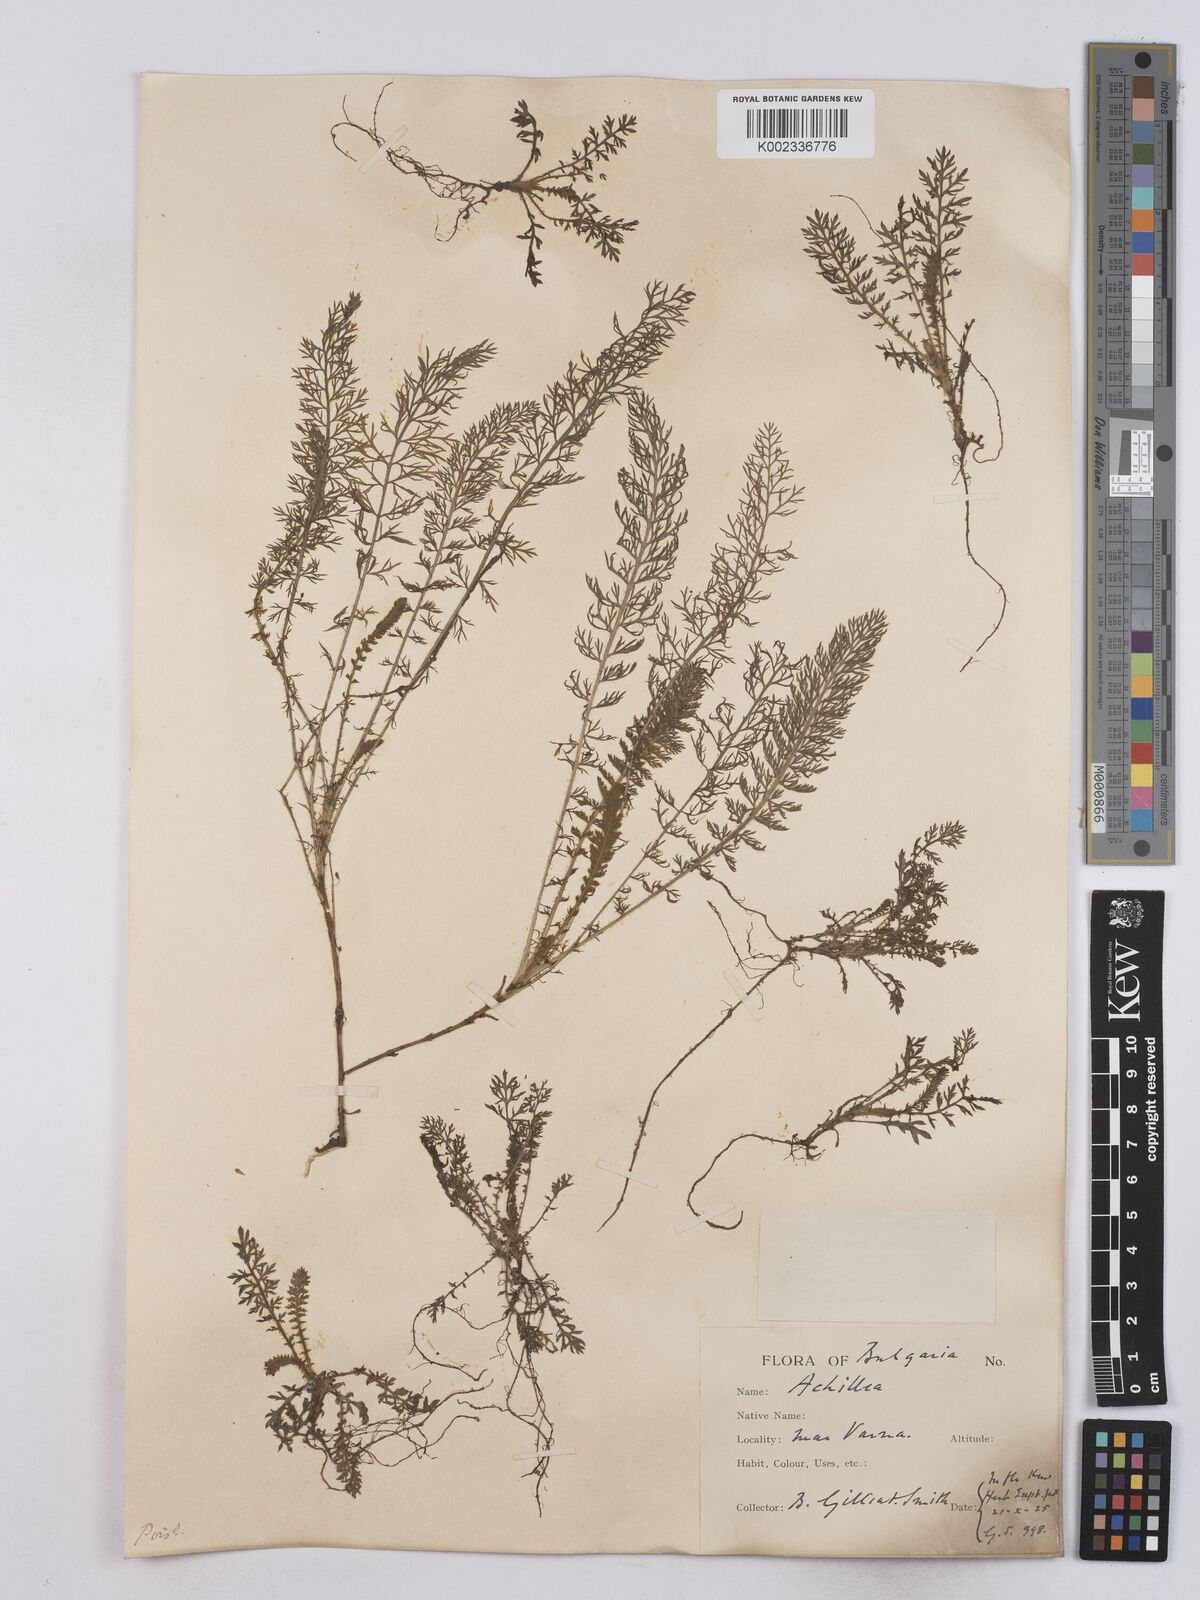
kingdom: Plantae
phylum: Tracheophyta
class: Magnoliopsida
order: Asterales
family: Asteraceae
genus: Achillea
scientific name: Achillea crithmifolia
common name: Yarrow
